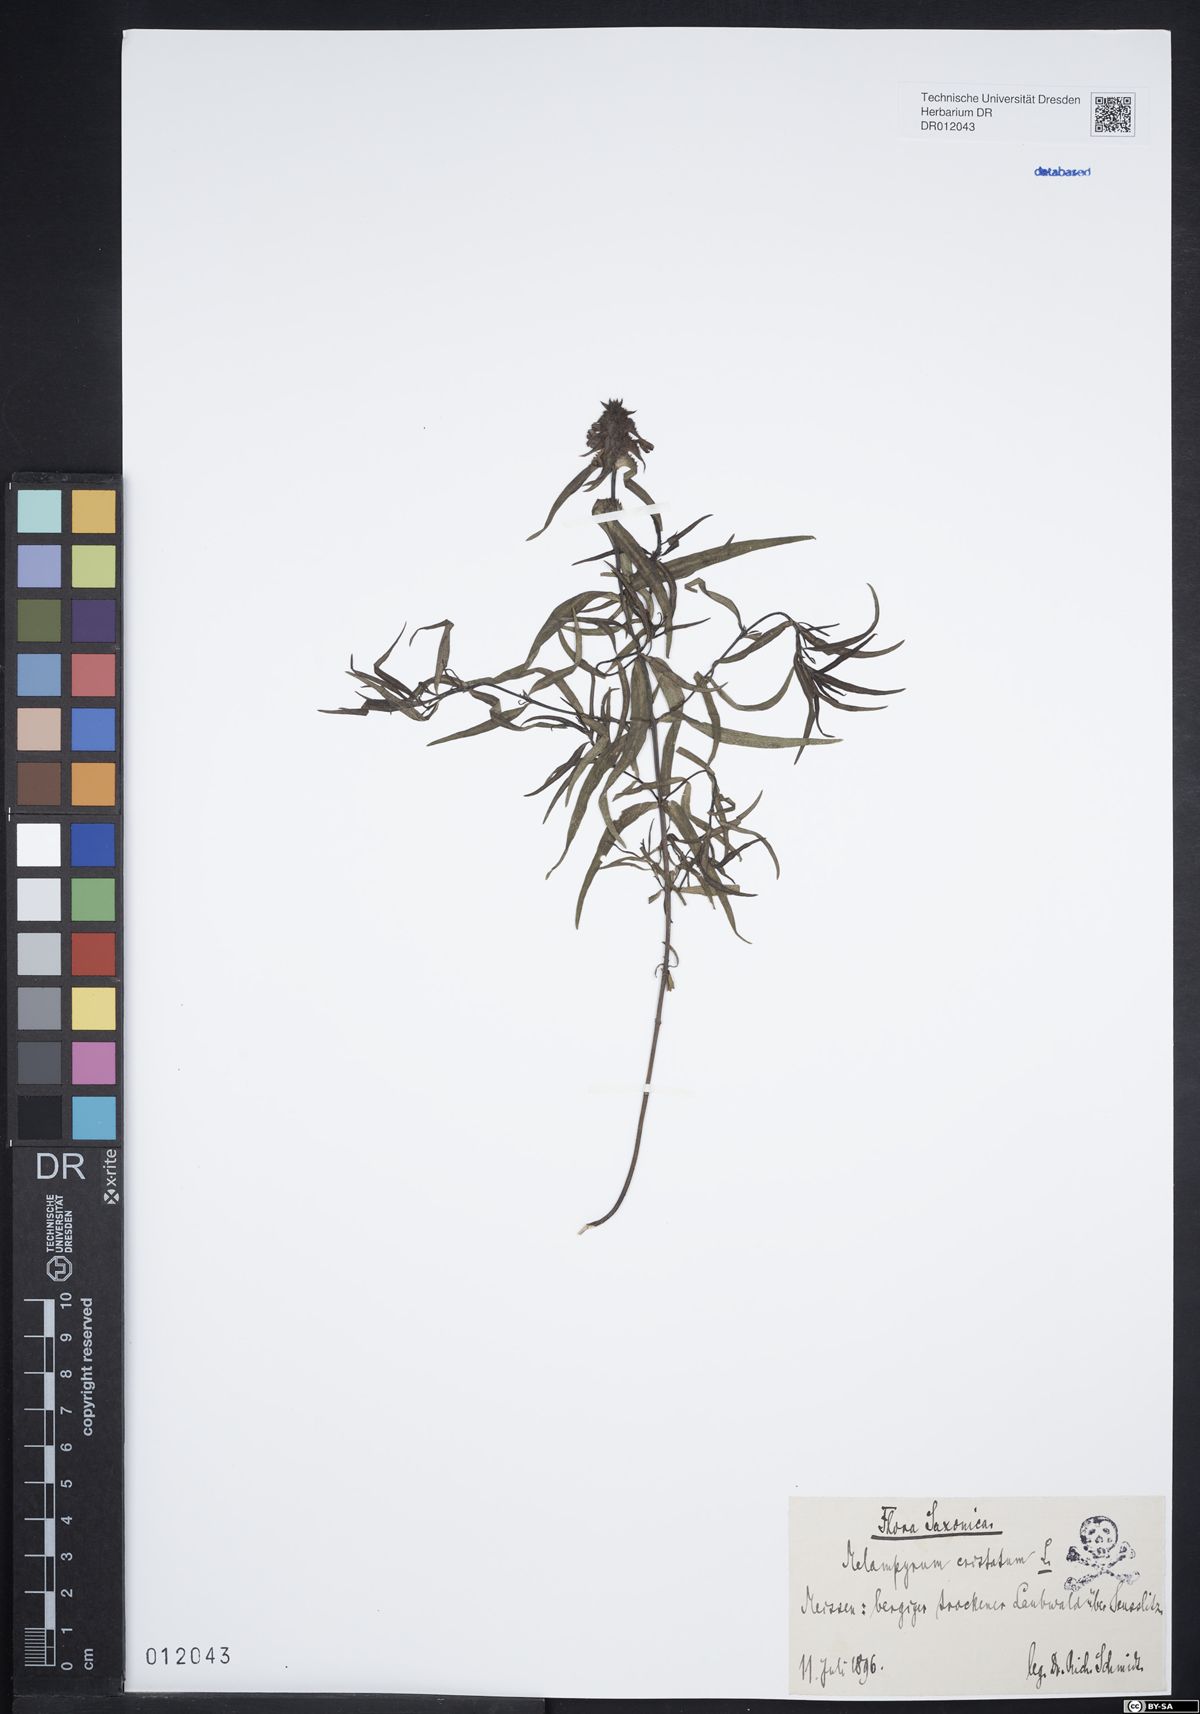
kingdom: Plantae
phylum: Tracheophyta
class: Magnoliopsida
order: Lamiales
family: Orobanchaceae
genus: Melampyrum
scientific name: Melampyrum cristatum
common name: Crested cow-wheat
